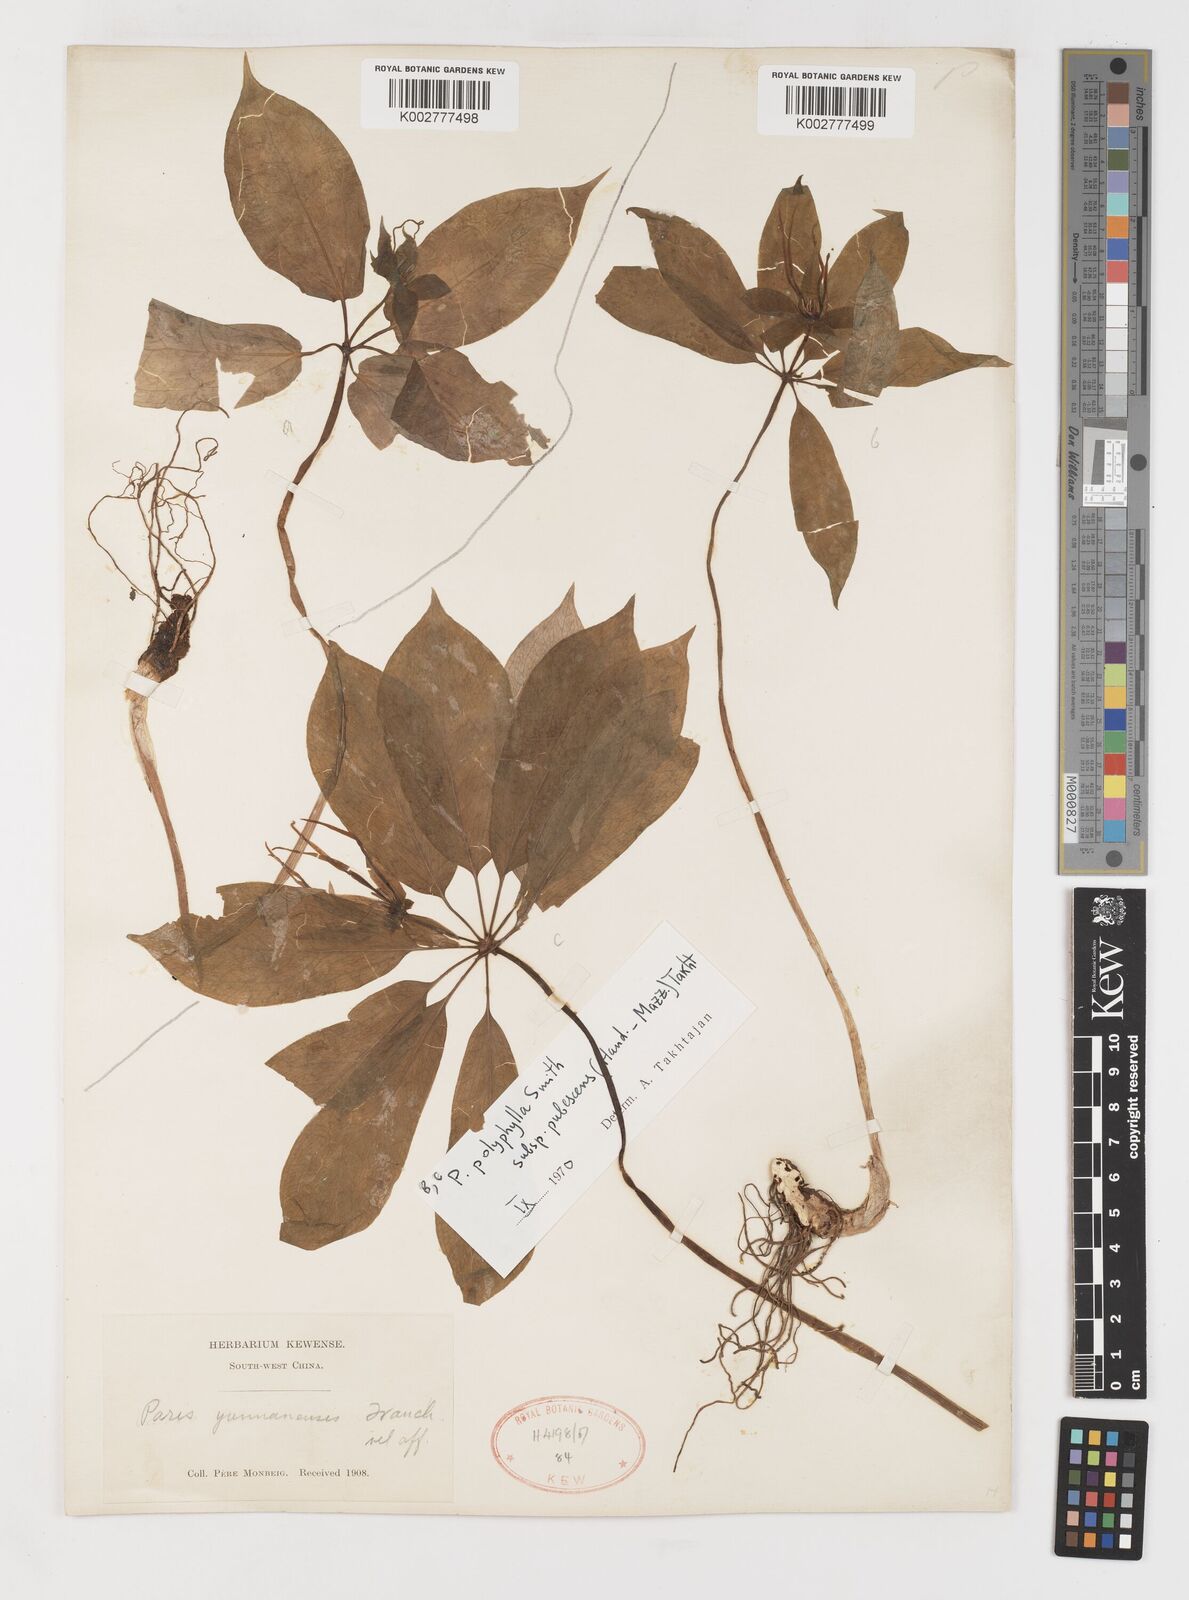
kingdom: Plantae
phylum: Tracheophyta
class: Liliopsida
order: Liliales
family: Melanthiaceae
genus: Paris
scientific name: Paris mairei
